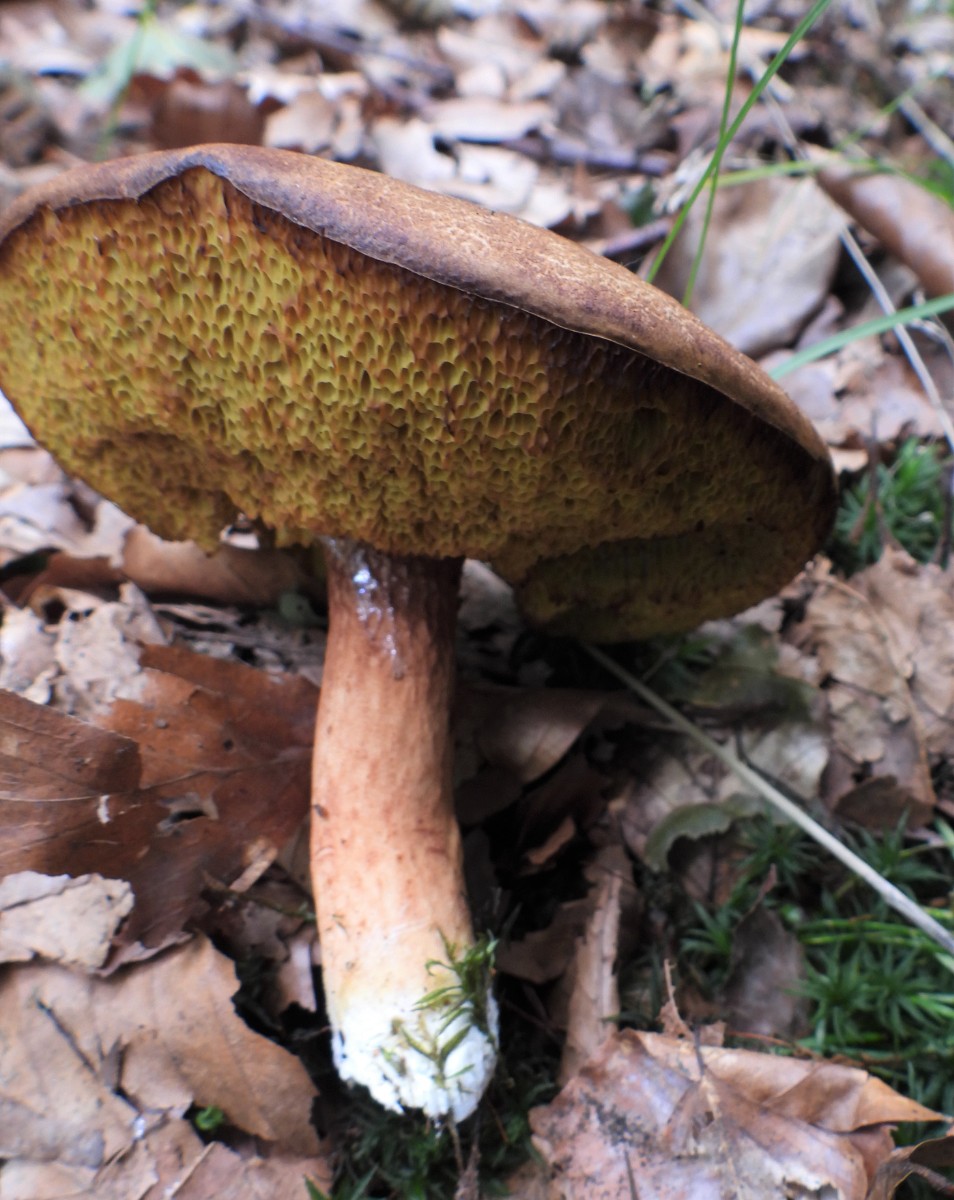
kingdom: Fungi
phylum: Basidiomycota
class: Agaricomycetes
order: Boletales
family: Boletaceae
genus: Imleria
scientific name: Imleria badia
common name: brunstokket rørhat
